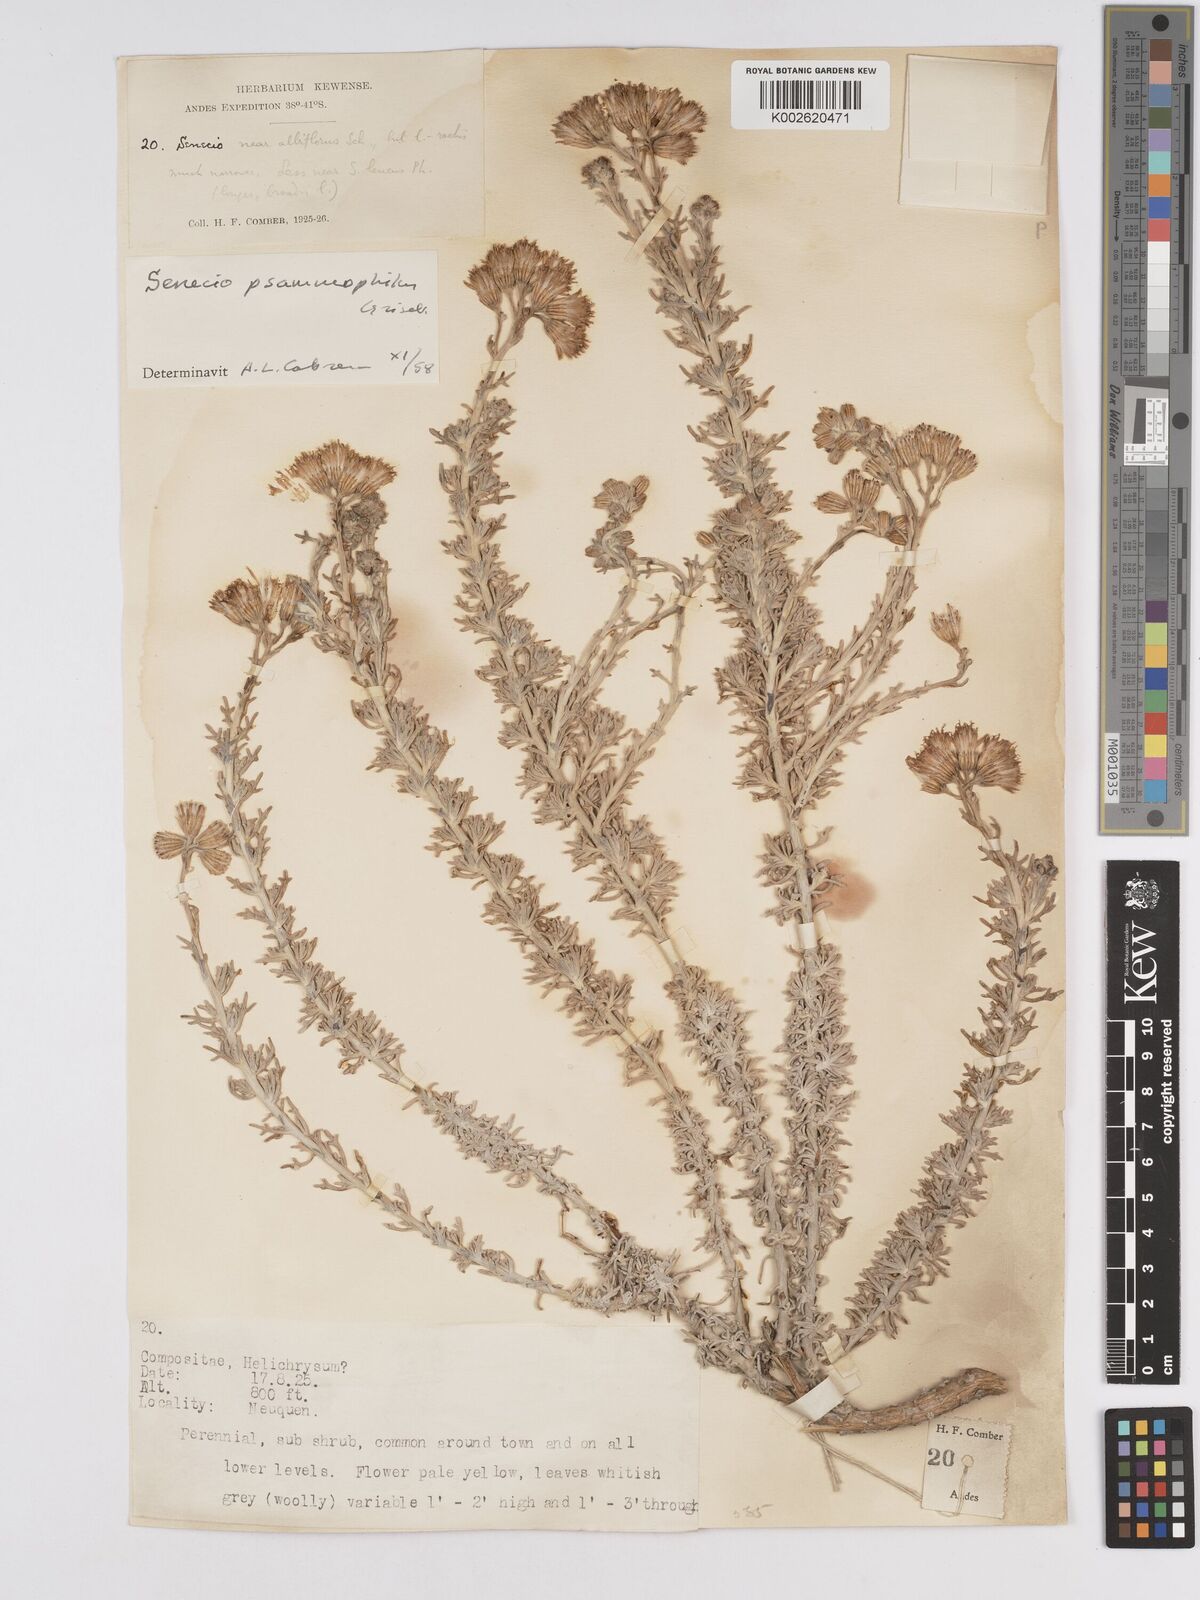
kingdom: Plantae
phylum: Tracheophyta
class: Magnoliopsida
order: Asterales
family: Asteraceae
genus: Senecio
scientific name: Senecio filaginoides
